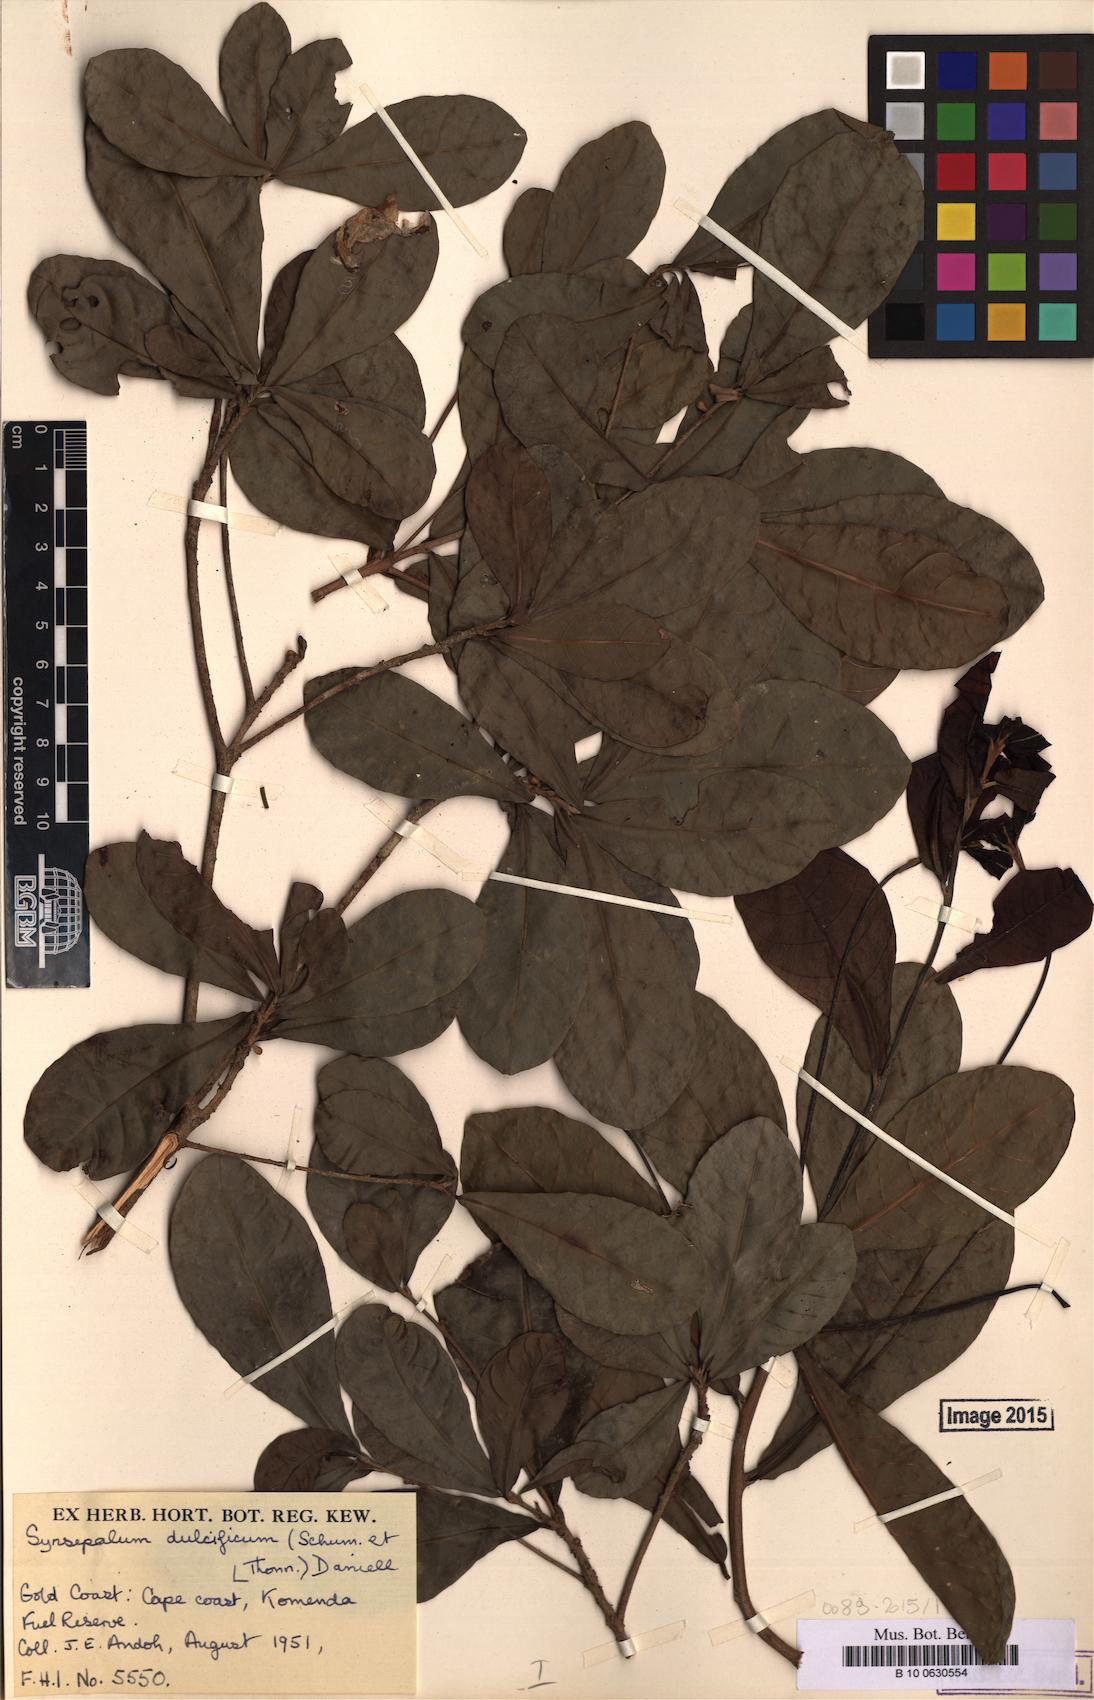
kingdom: Plantae
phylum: Tracheophyta
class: Magnoliopsida
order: Ericales
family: Sapotaceae
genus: Synsepalum
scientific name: Synsepalum dulcificum
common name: Miracle-fruit
